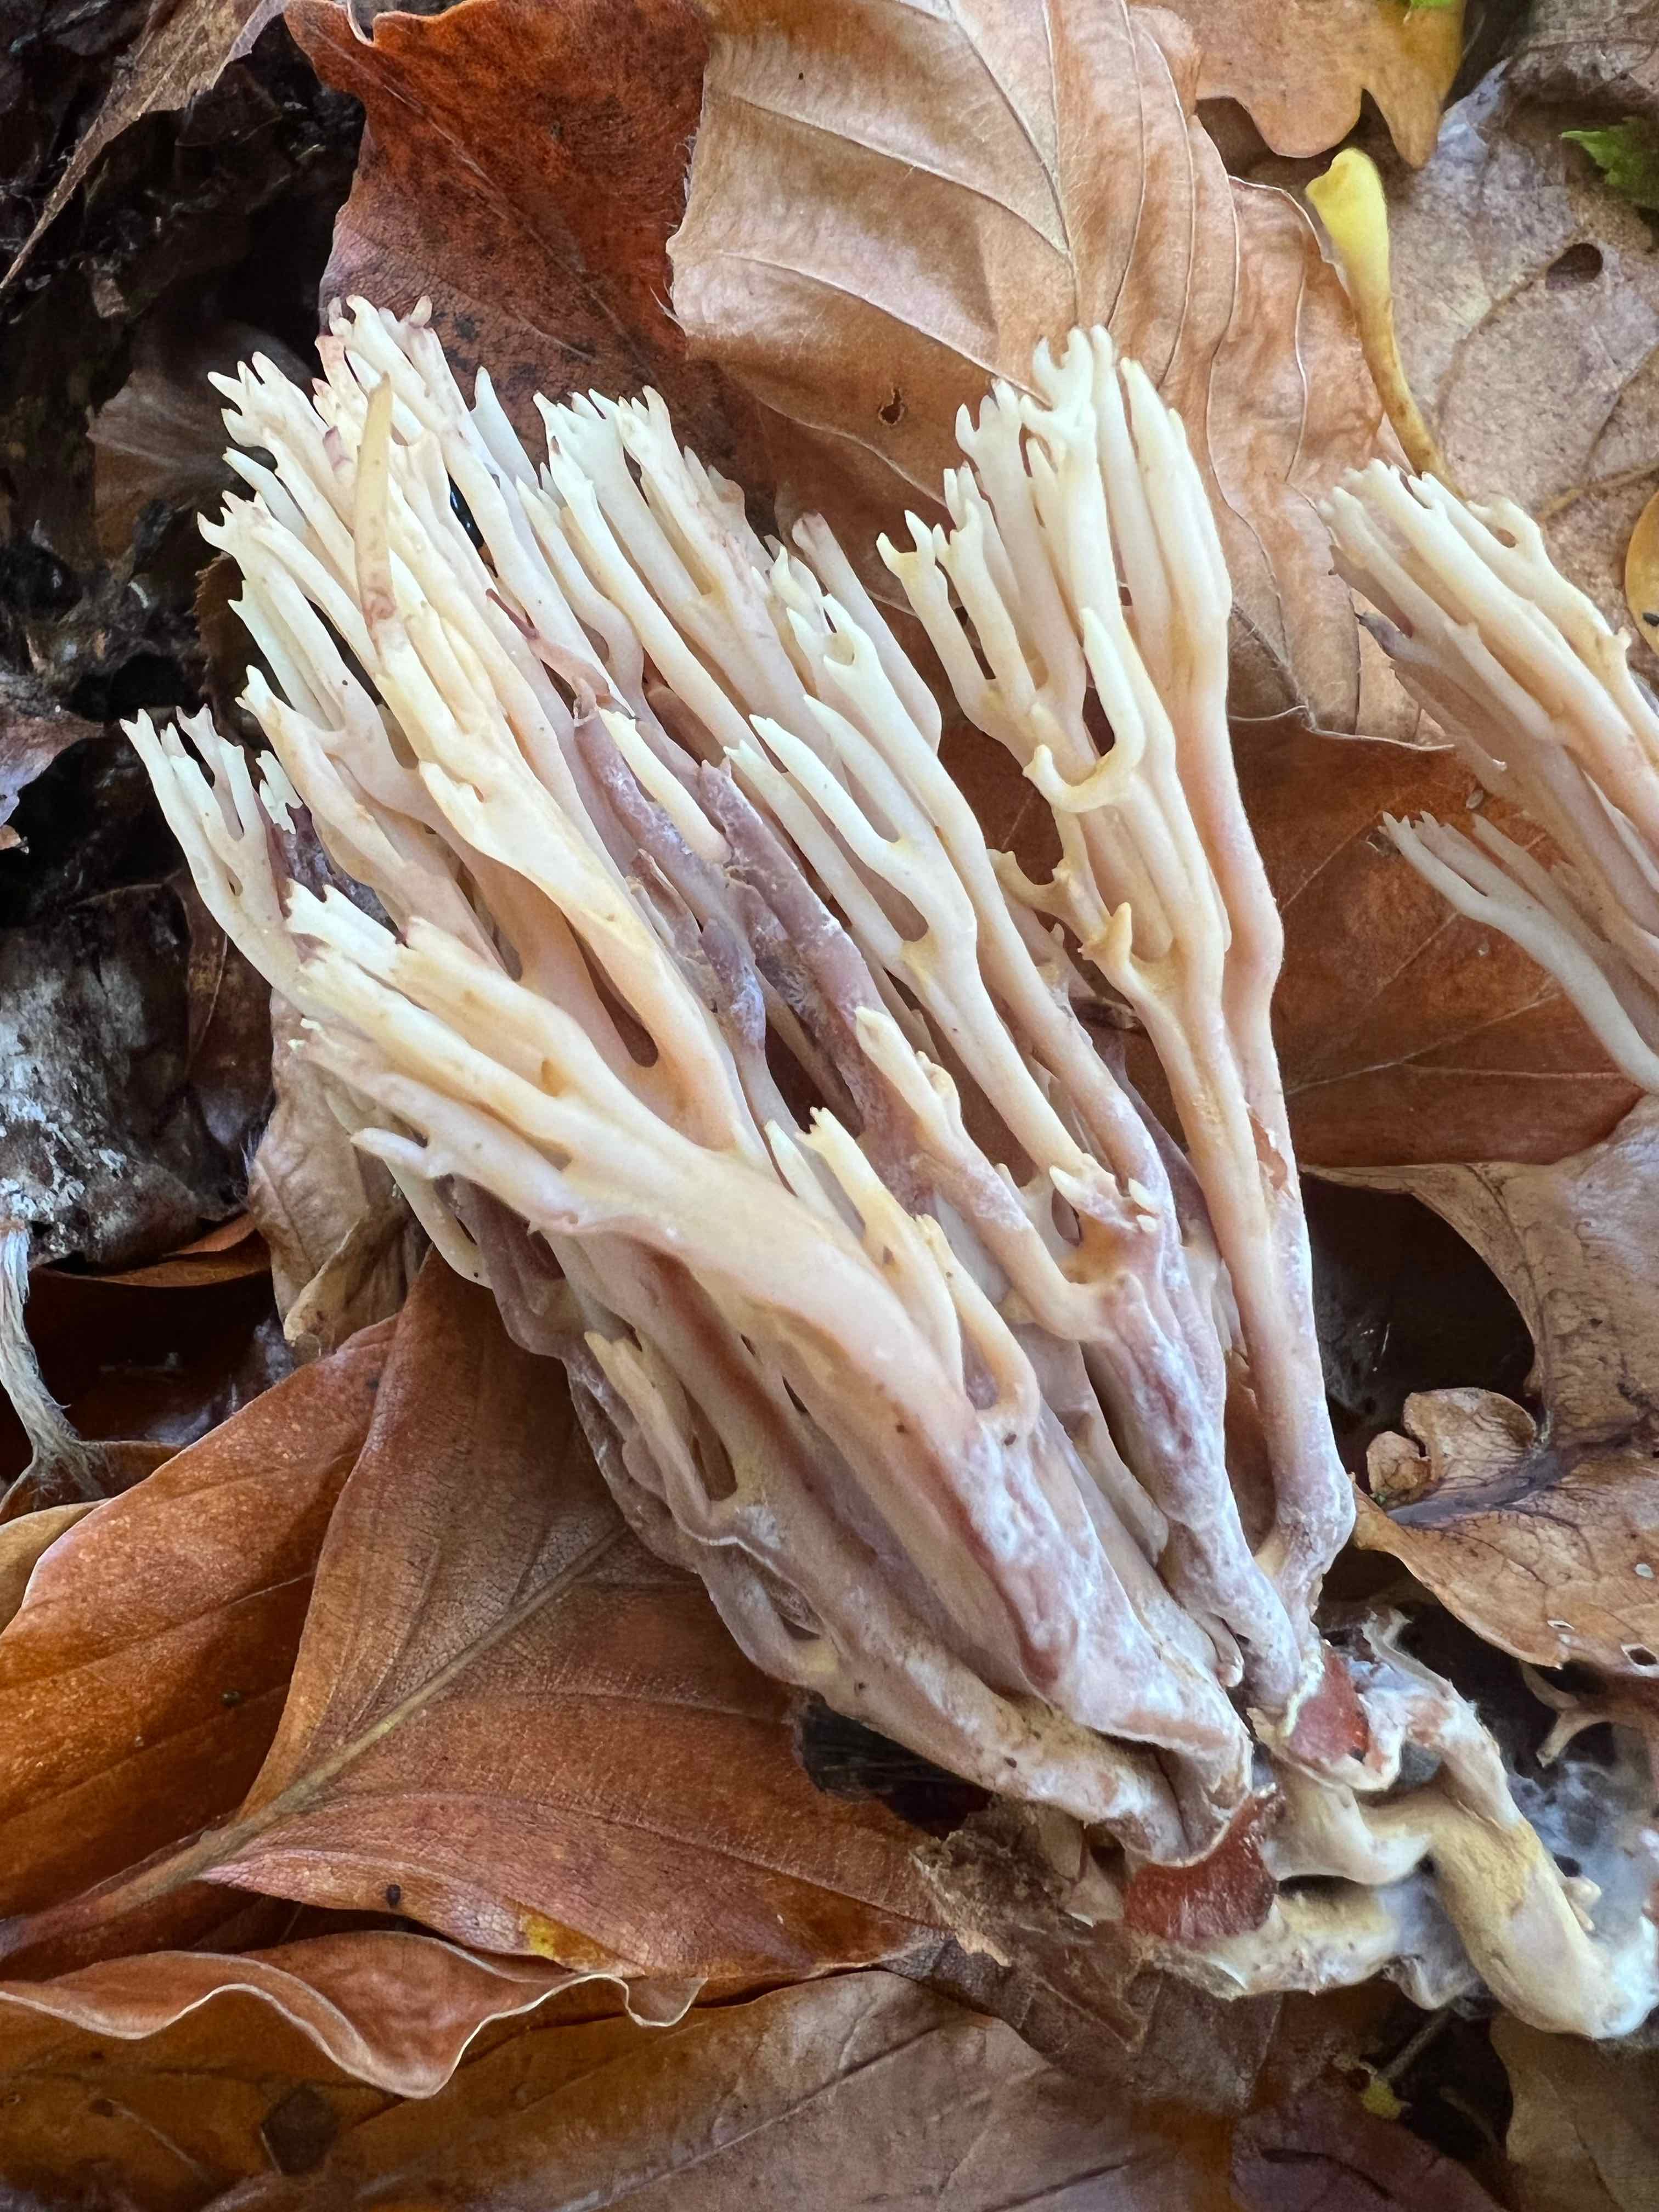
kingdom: Fungi
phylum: Basidiomycota
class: Agaricomycetes
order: Gomphales
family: Gomphaceae
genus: Ramaria
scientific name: Ramaria stricta
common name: rank koralsvamp
